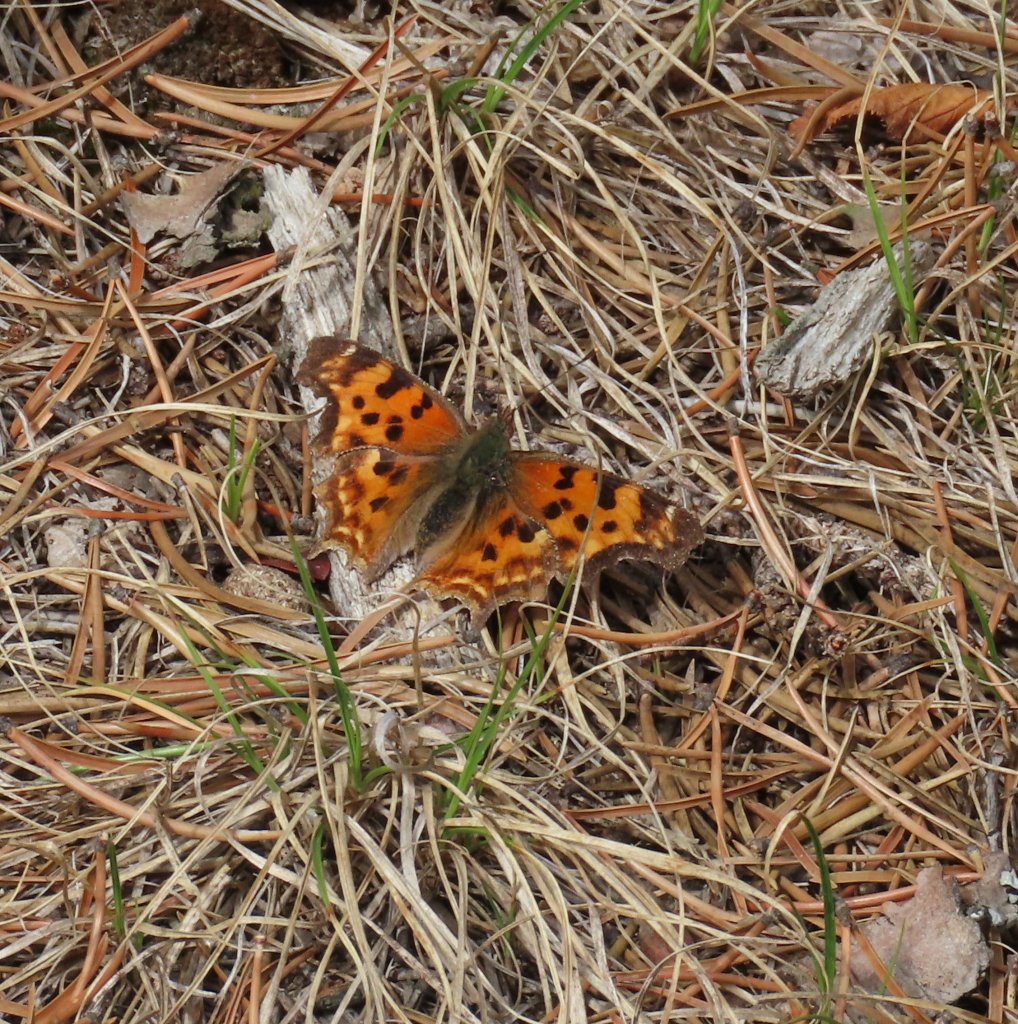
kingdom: Animalia
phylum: Arthropoda
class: Insecta
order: Lepidoptera
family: Nymphalidae
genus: Polygonia
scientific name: Polygonia faunus
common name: Green Comma
